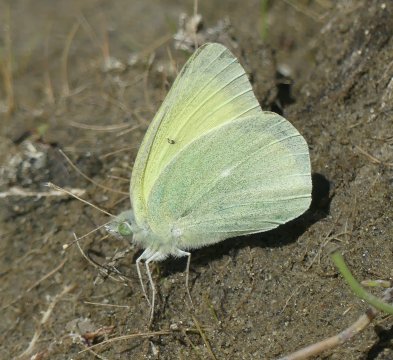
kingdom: Animalia
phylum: Arthropoda
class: Insecta
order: Lepidoptera
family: Pieridae
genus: Colias
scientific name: Colias alexandra
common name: Queen Alexandra's Sulphur
